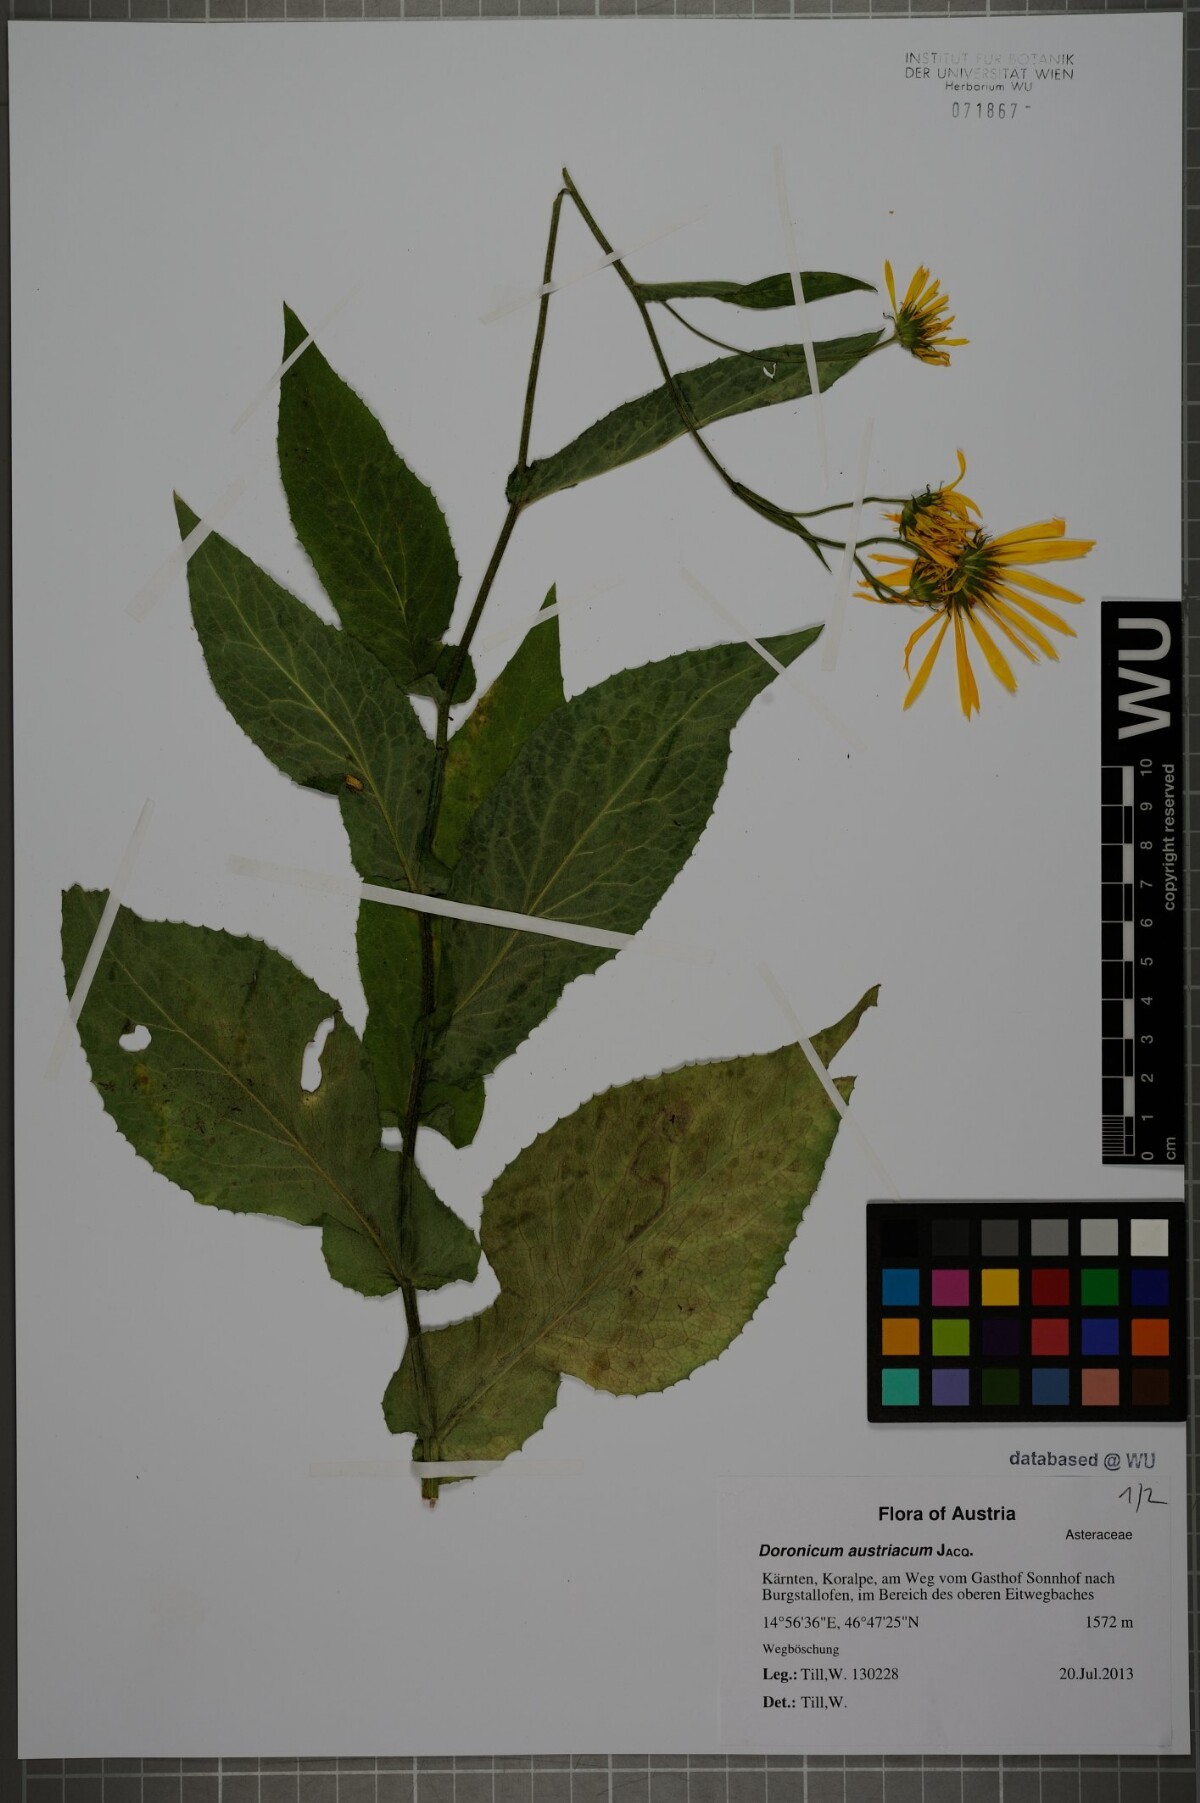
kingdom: Plantae
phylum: Tracheophyta
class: Magnoliopsida
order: Asterales
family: Asteraceae
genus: Doronicum
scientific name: Doronicum austriacum
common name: Austrian leopard's-bane
